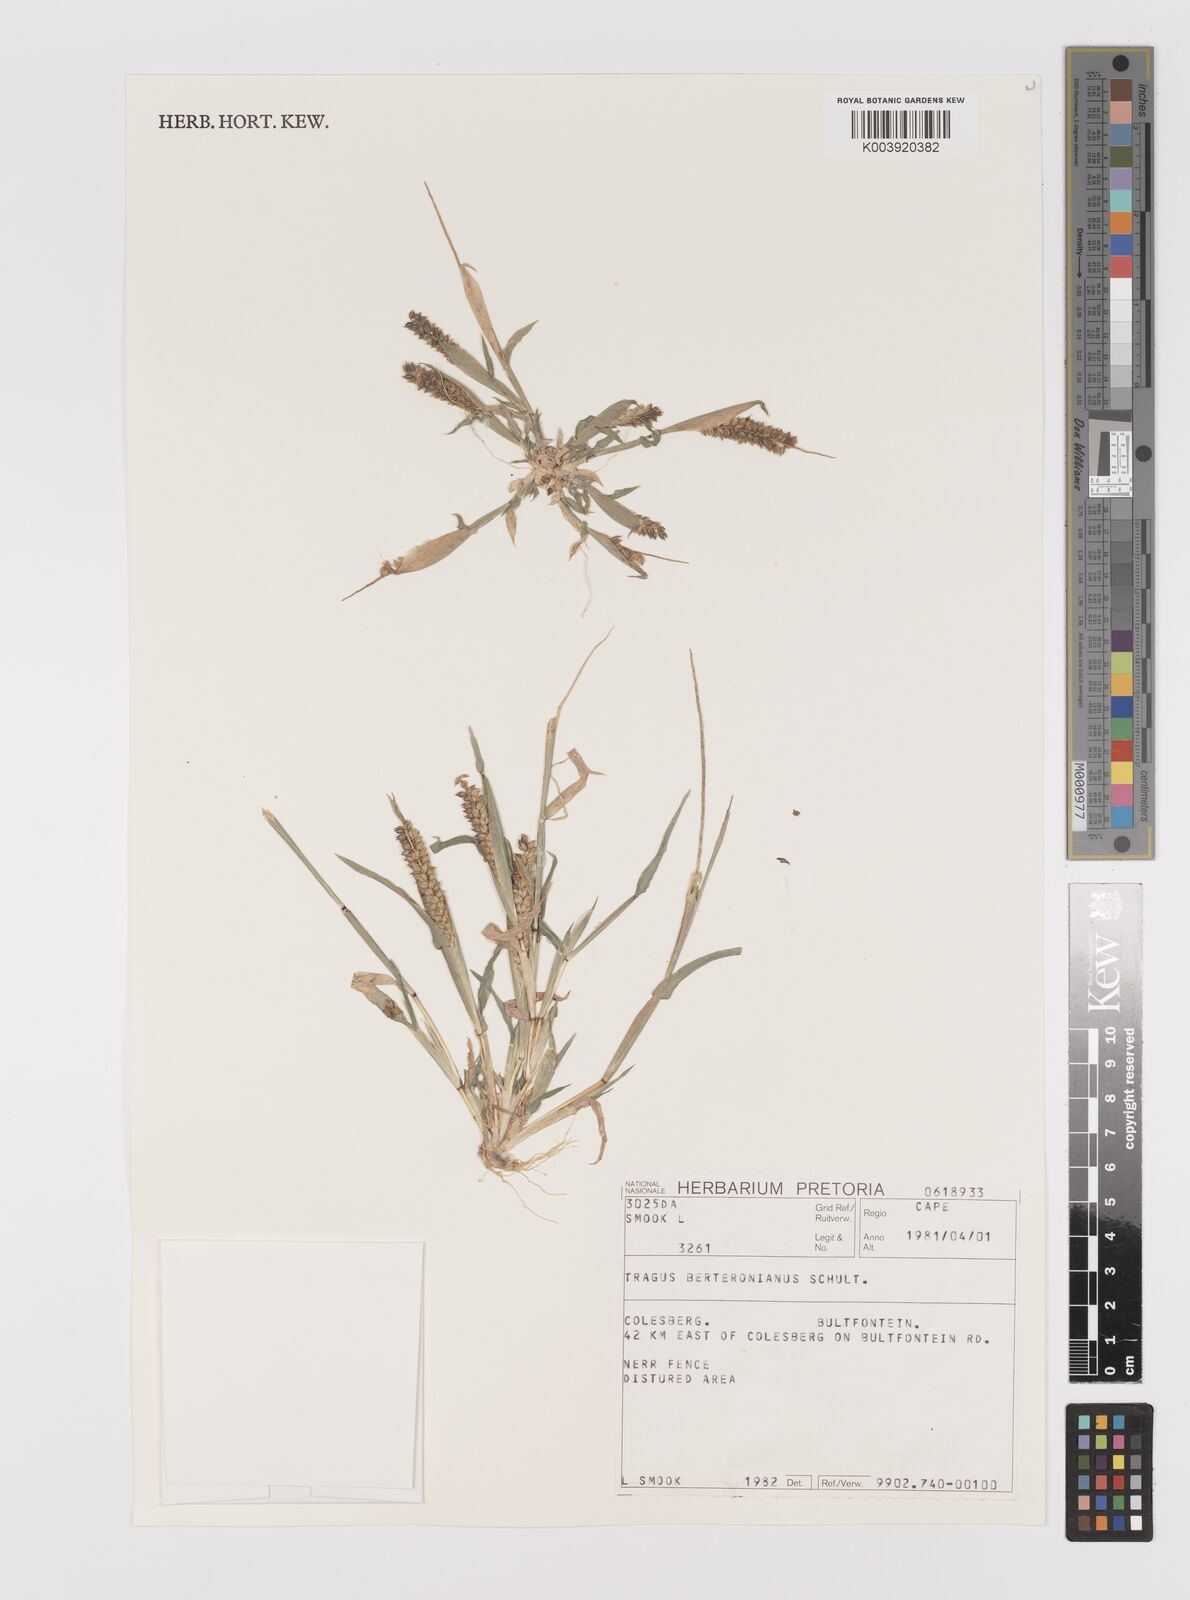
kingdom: Plantae
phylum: Tracheophyta
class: Liliopsida
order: Poales
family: Poaceae
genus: Tragus
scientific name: Tragus berteronianus
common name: African bur-grass
